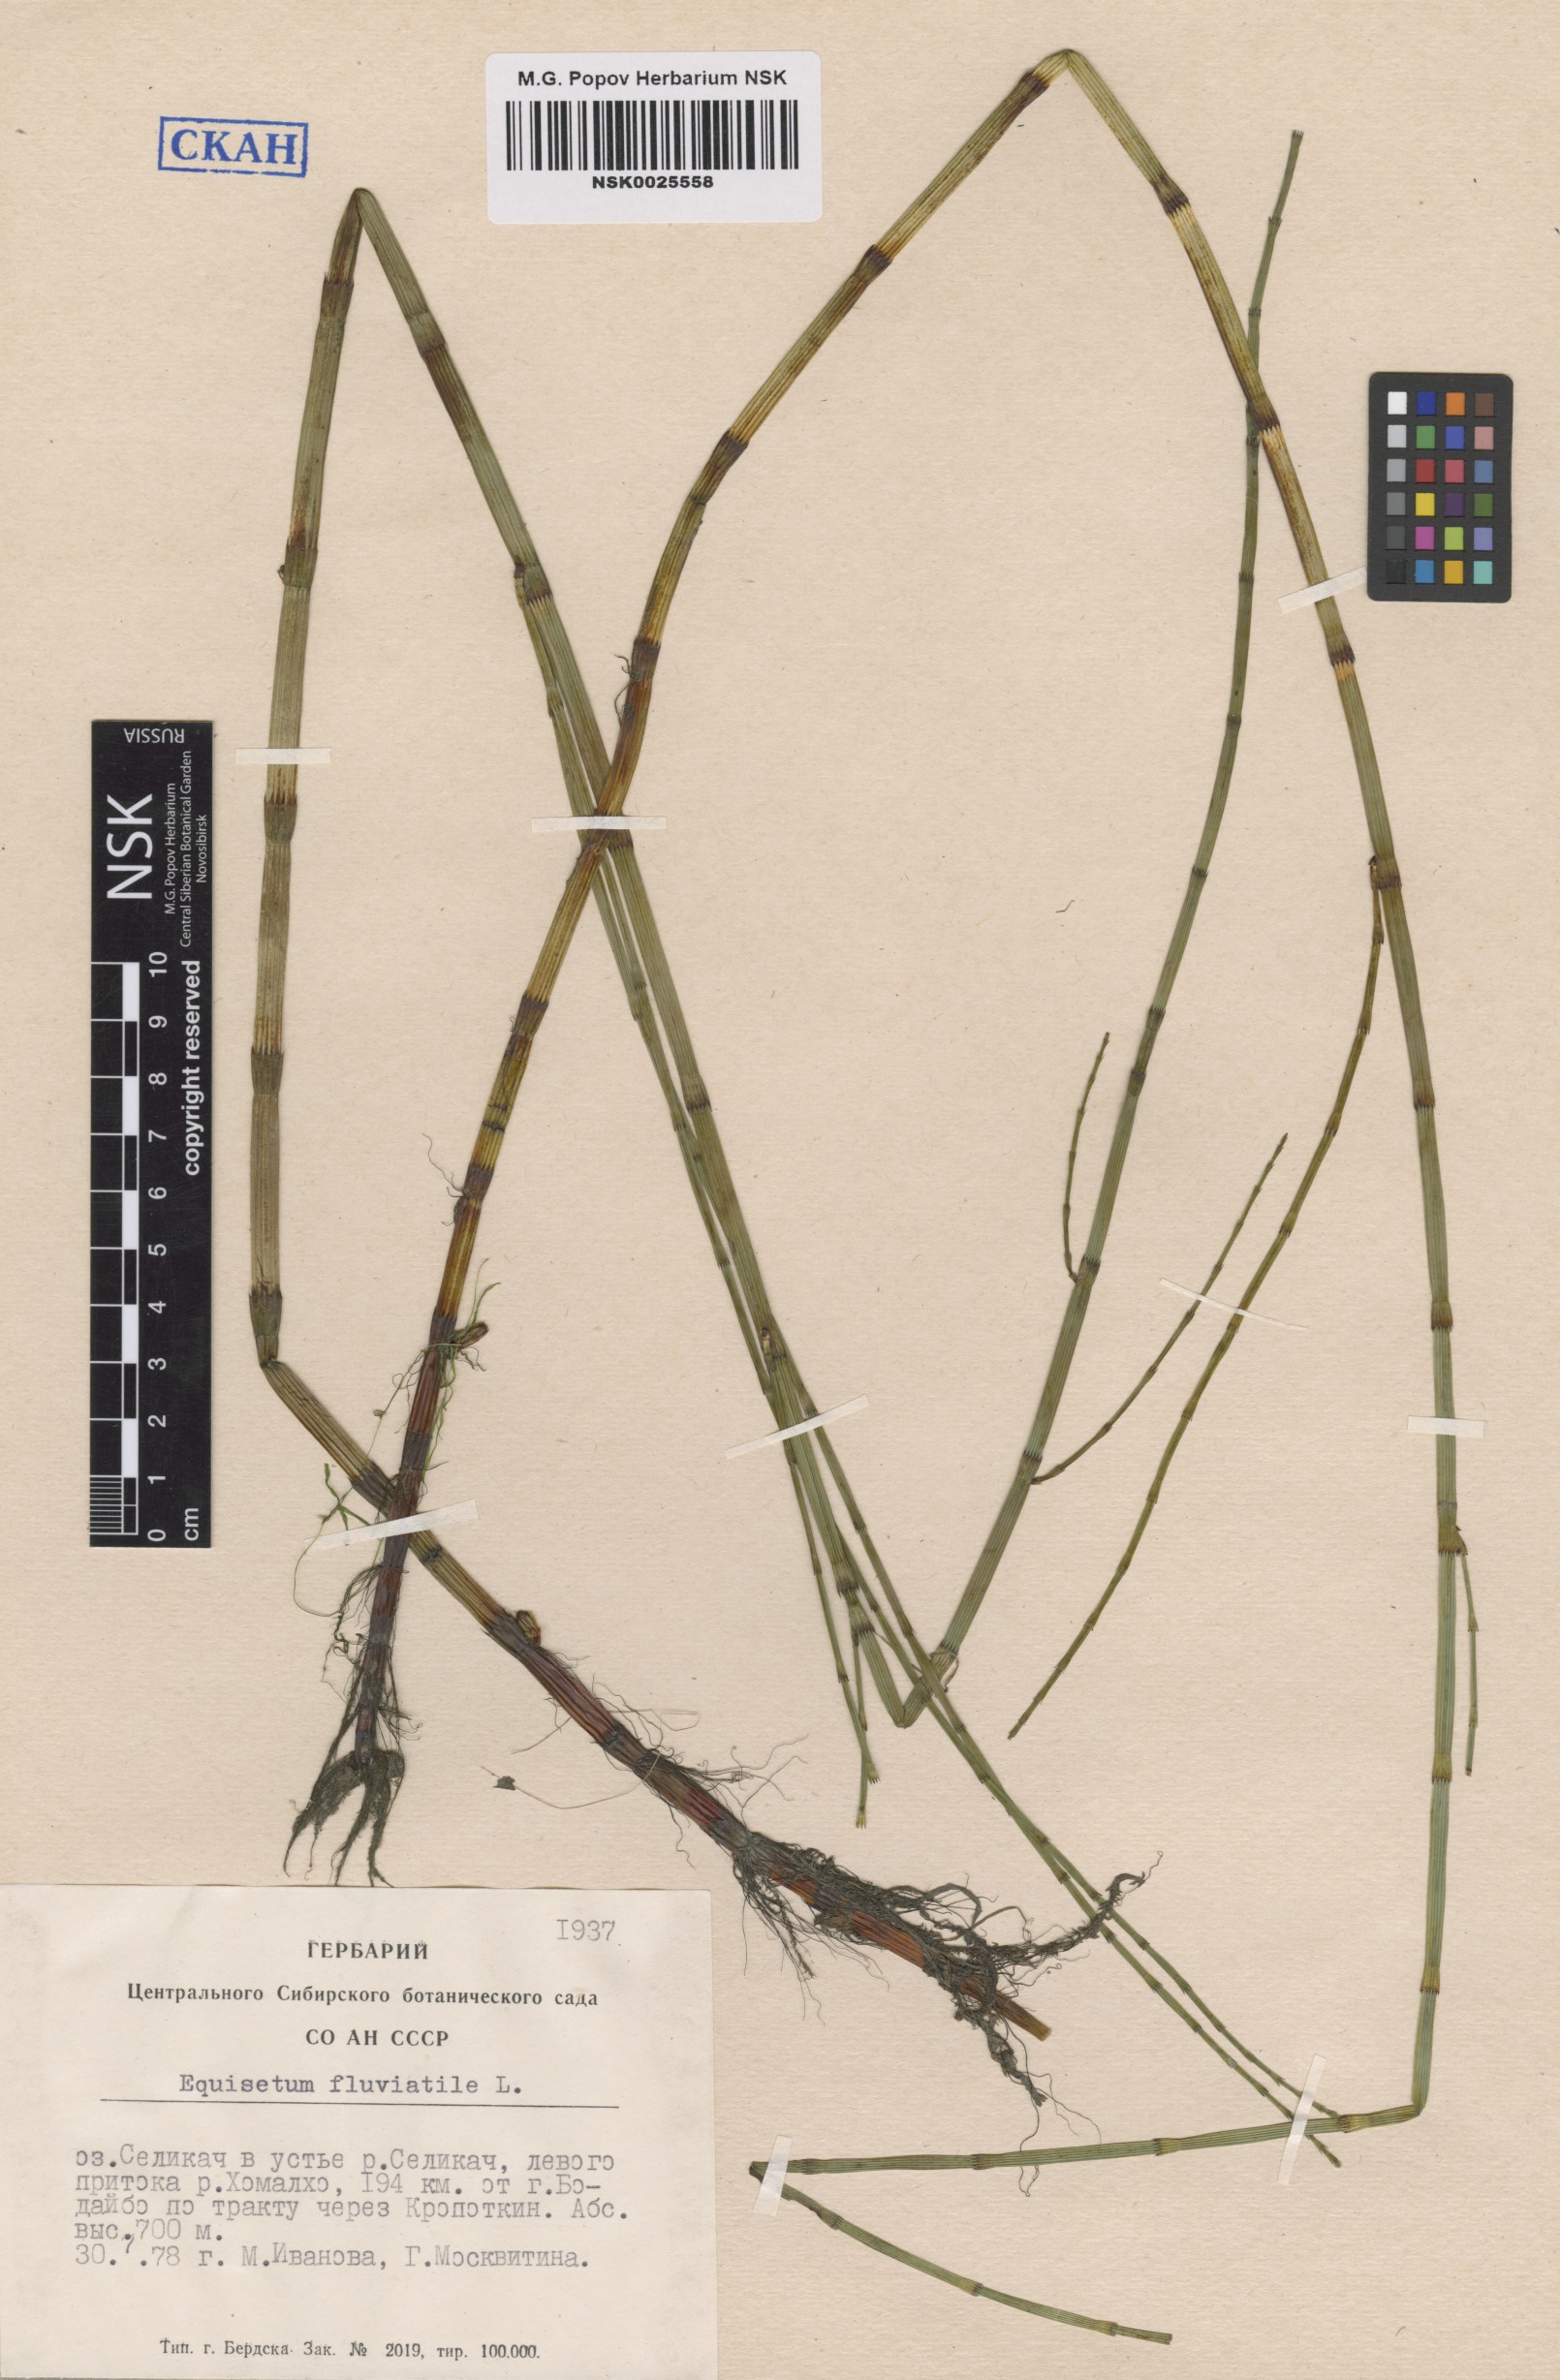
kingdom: Plantae
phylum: Tracheophyta
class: Polypodiopsida
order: Equisetales
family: Equisetaceae
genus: Equisetum
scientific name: Equisetum fluviatile
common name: Water horsetail
